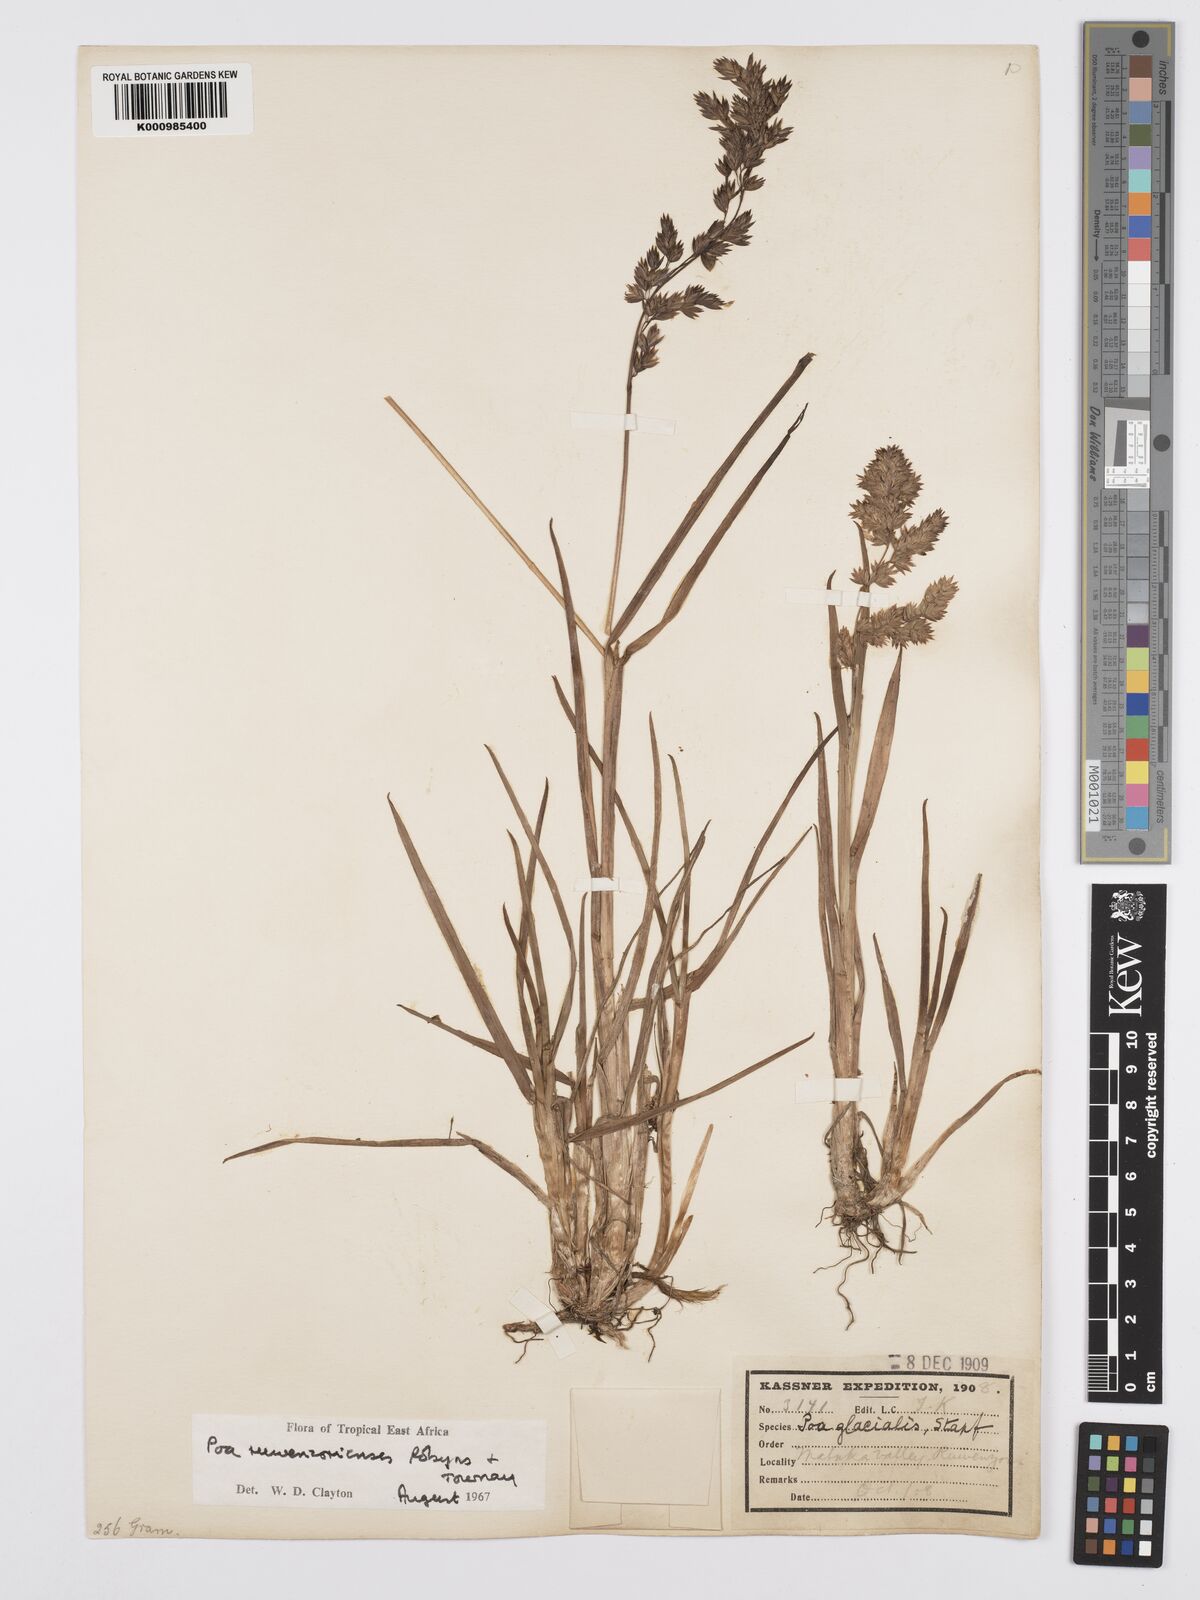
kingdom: Plantae
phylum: Tracheophyta
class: Liliopsida
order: Poales
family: Poaceae
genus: Poa
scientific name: Poa ruwenzoriensis
